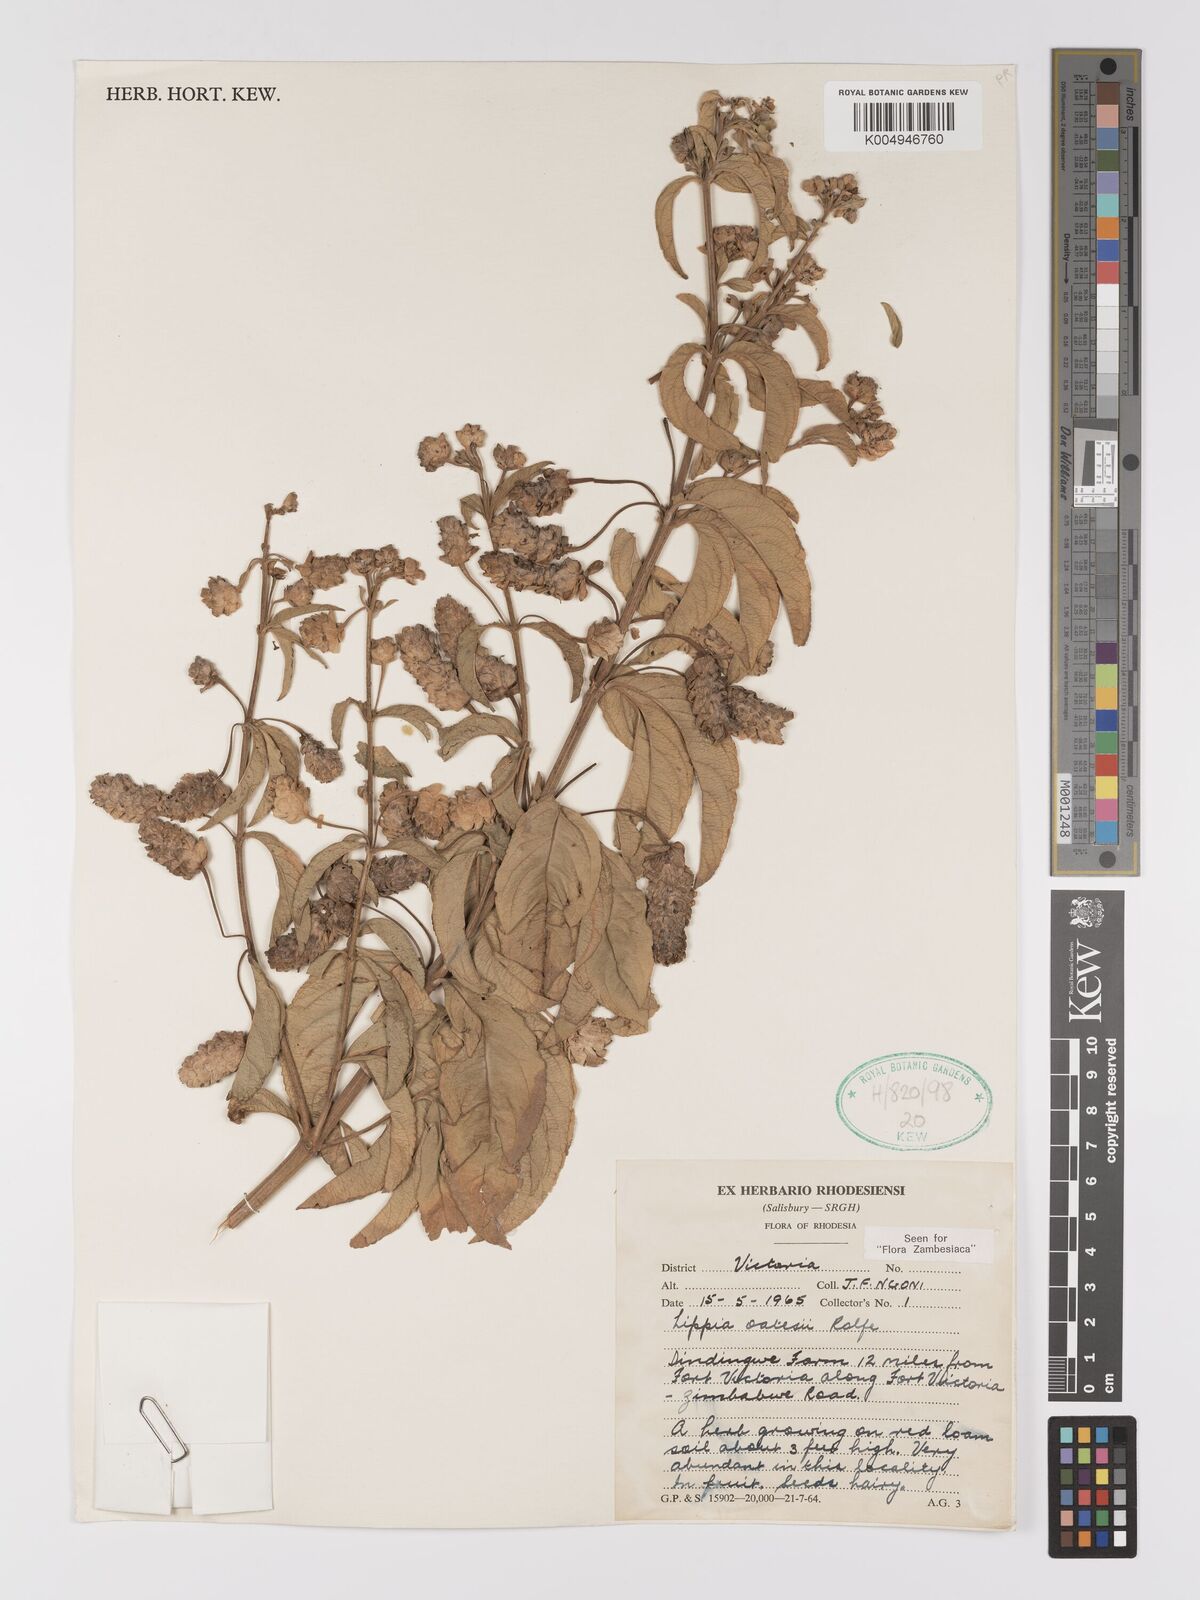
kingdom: Plantae
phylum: Tracheophyta
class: Magnoliopsida
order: Lamiales
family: Verbenaceae
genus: Lippia
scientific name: Lippia oatesii
